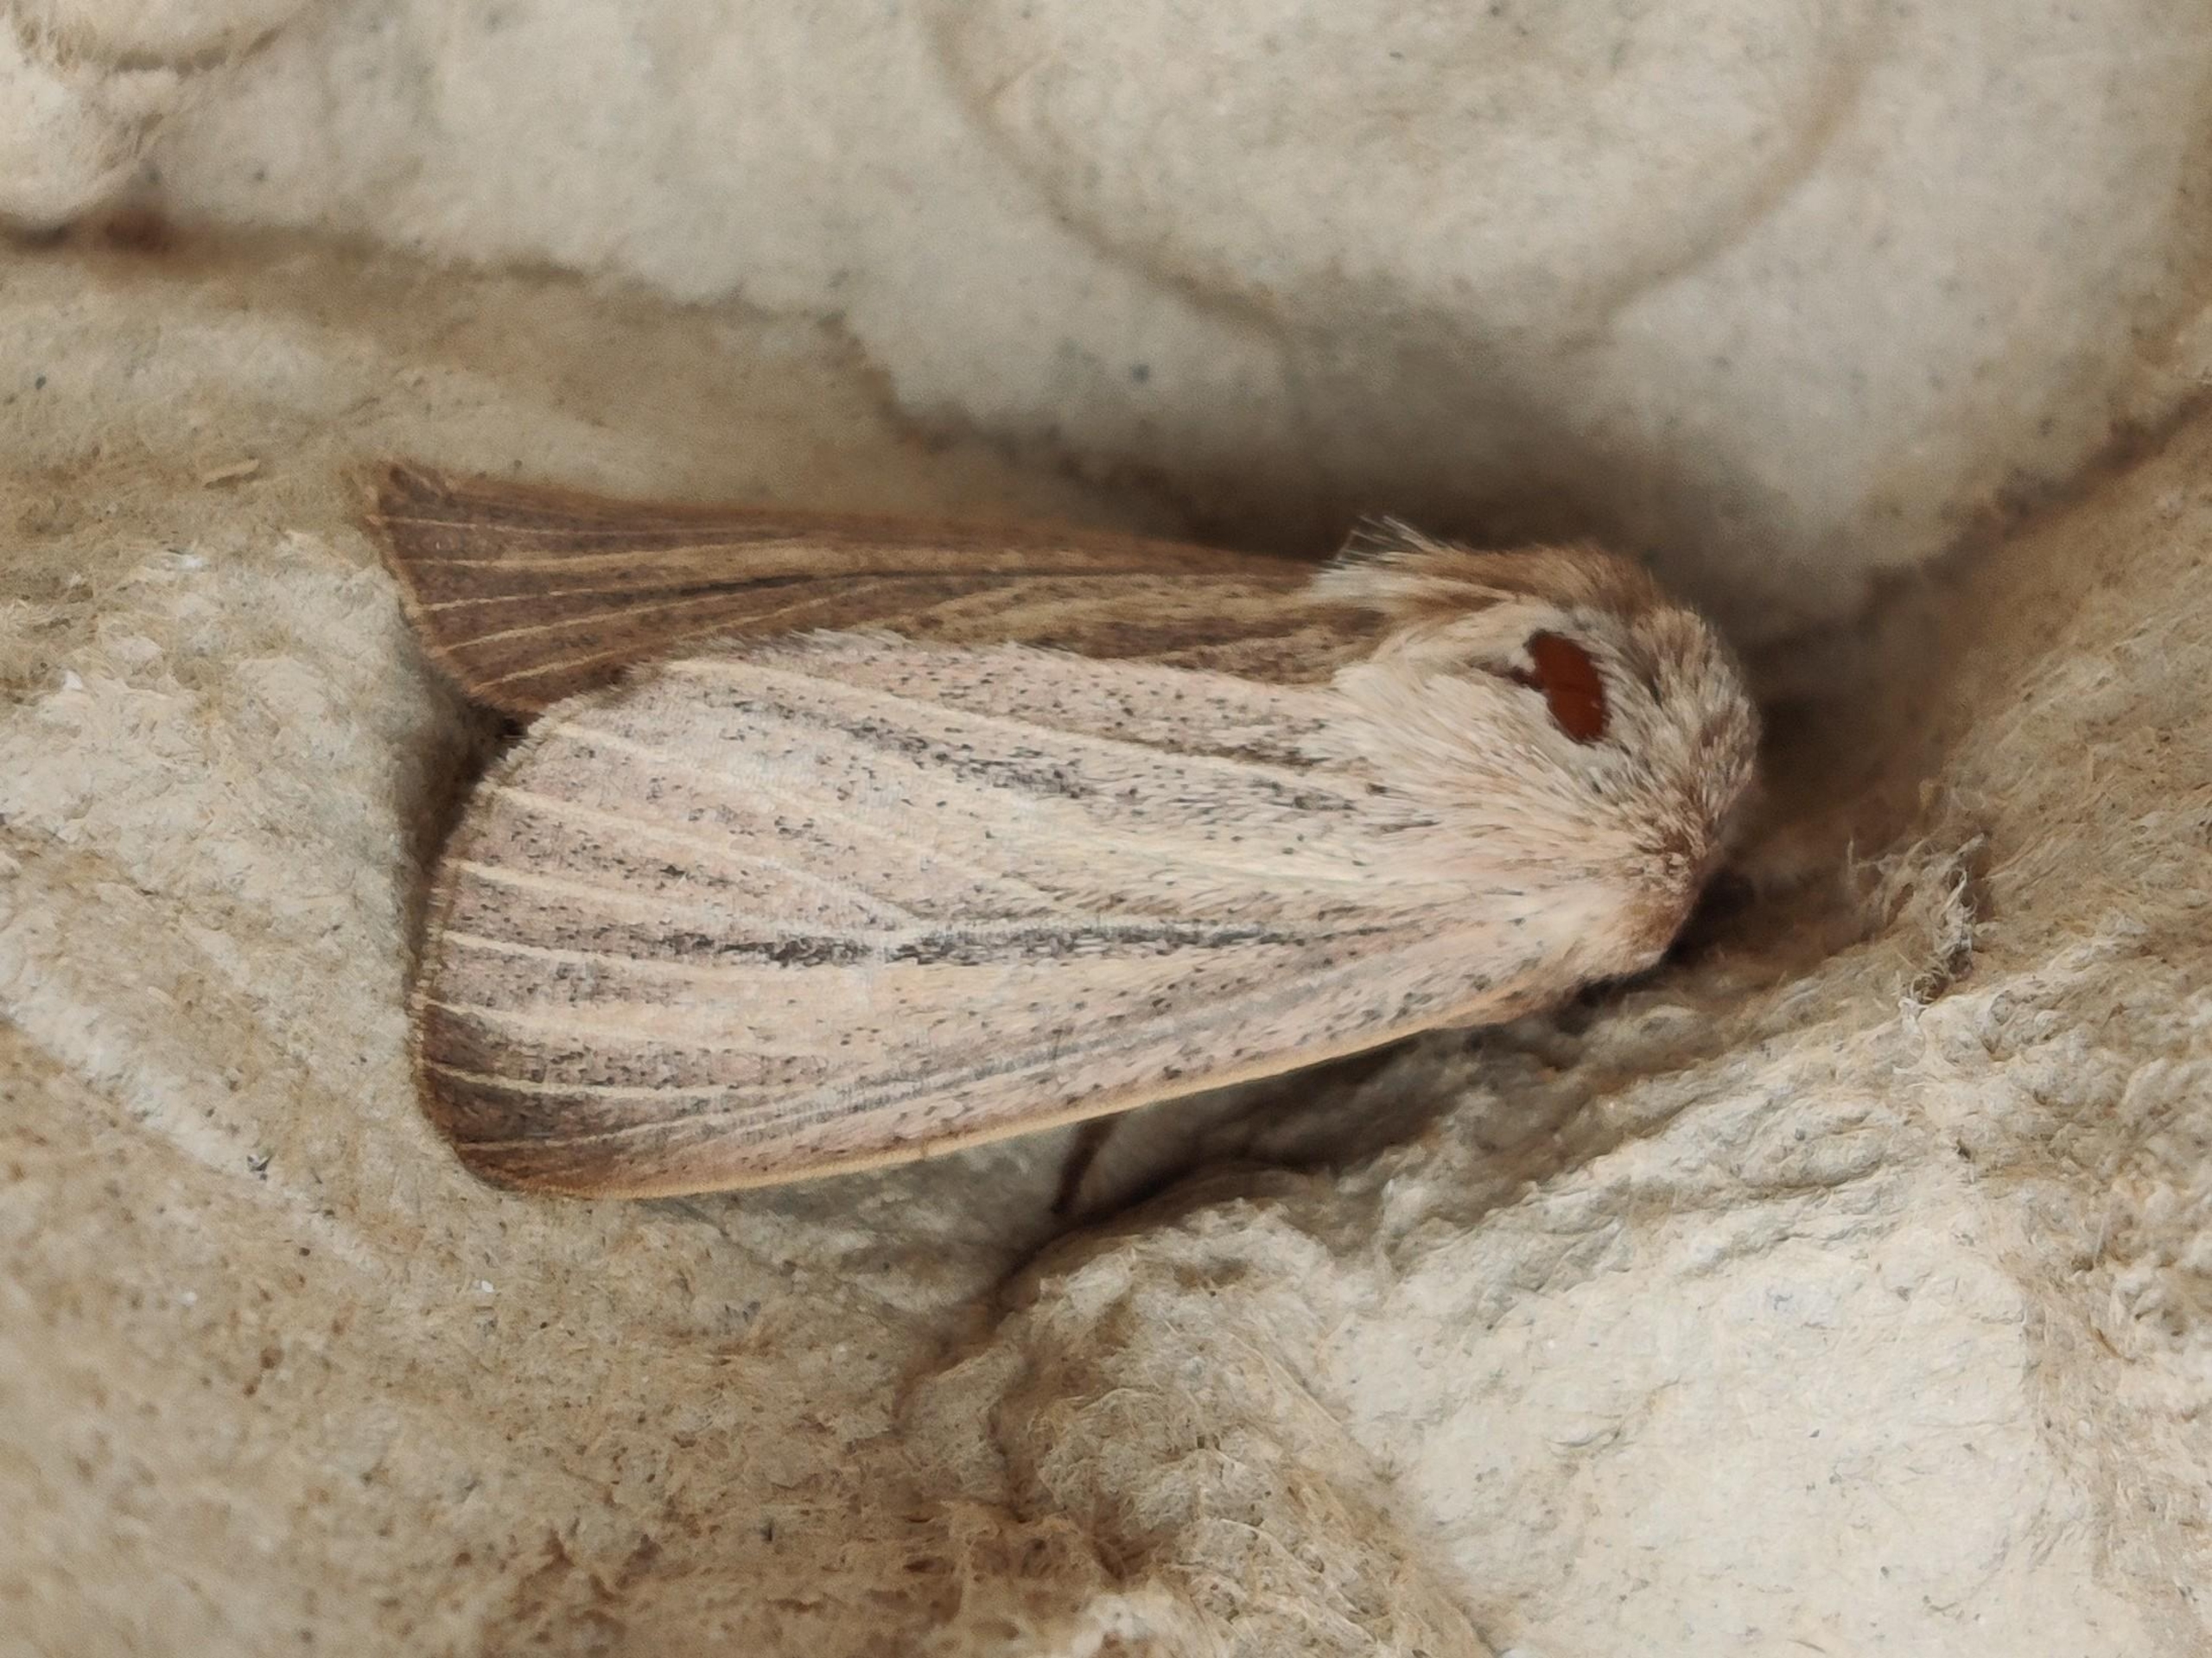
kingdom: Animalia
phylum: Arthropoda
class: Insecta
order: Lepidoptera
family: Noctuidae
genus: Mythimna
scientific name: Mythimna pudorina
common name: Flov græsugle
